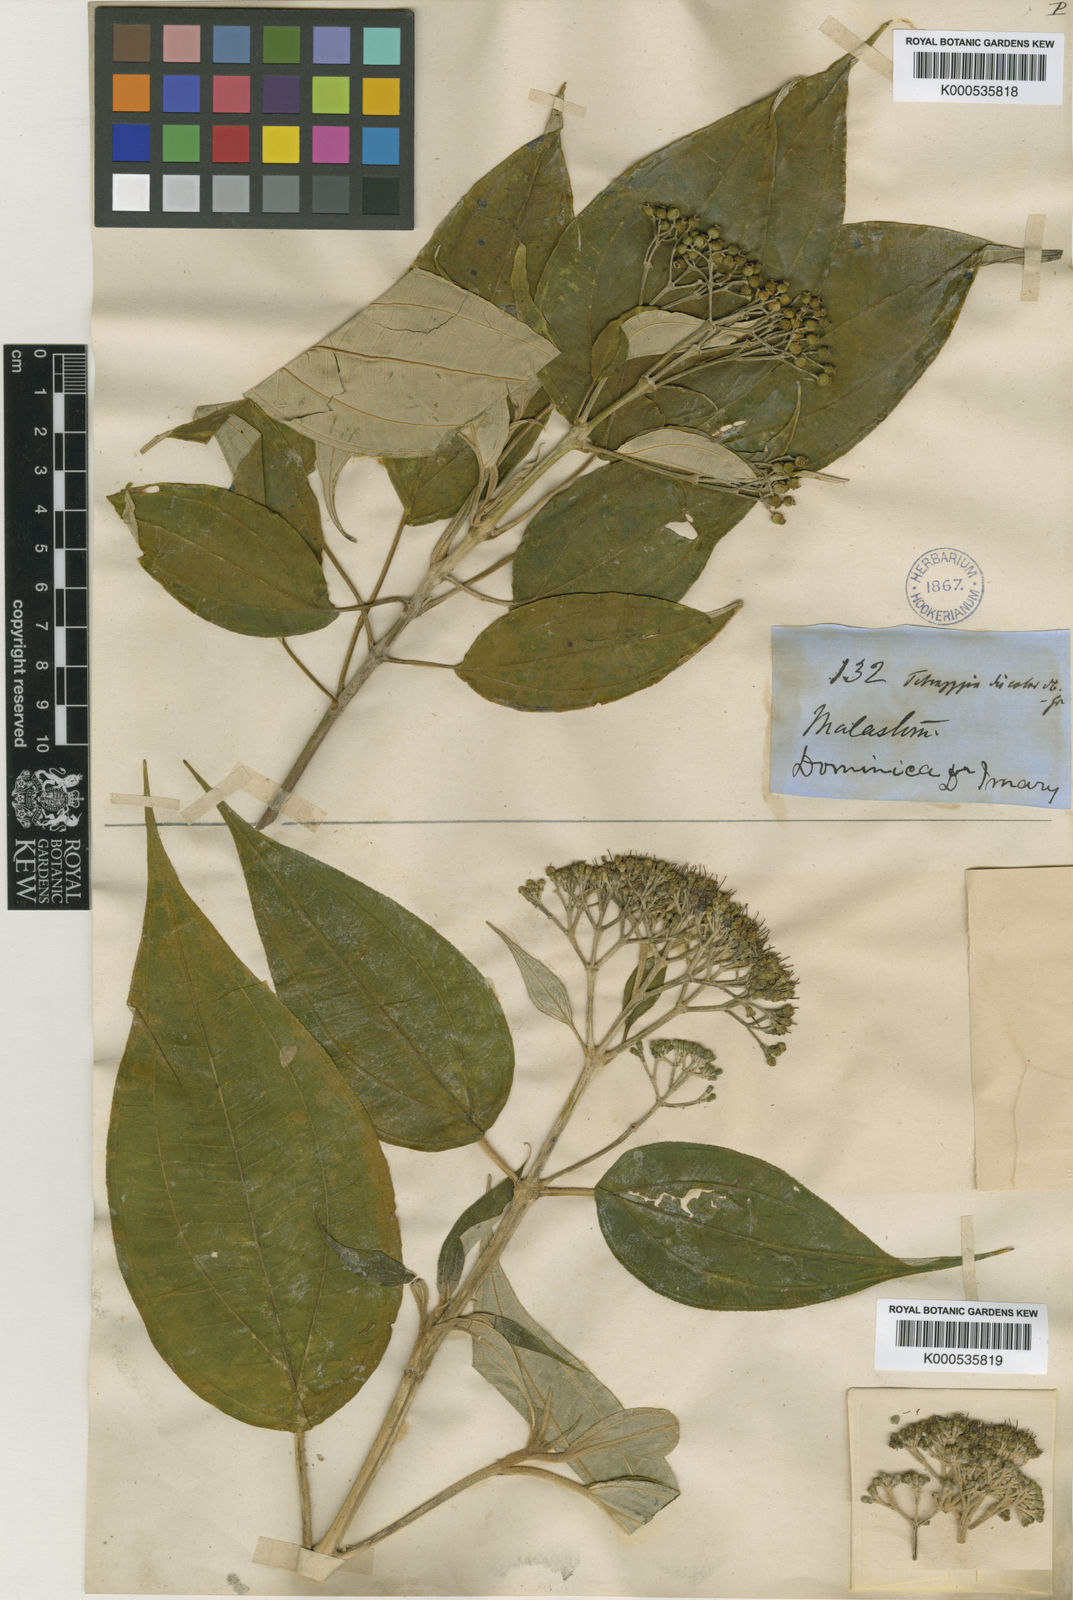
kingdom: Plantae
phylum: Tracheophyta
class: Magnoliopsida
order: Myrtales
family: Melastomataceae
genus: Miconia
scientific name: Miconia christophoriana
